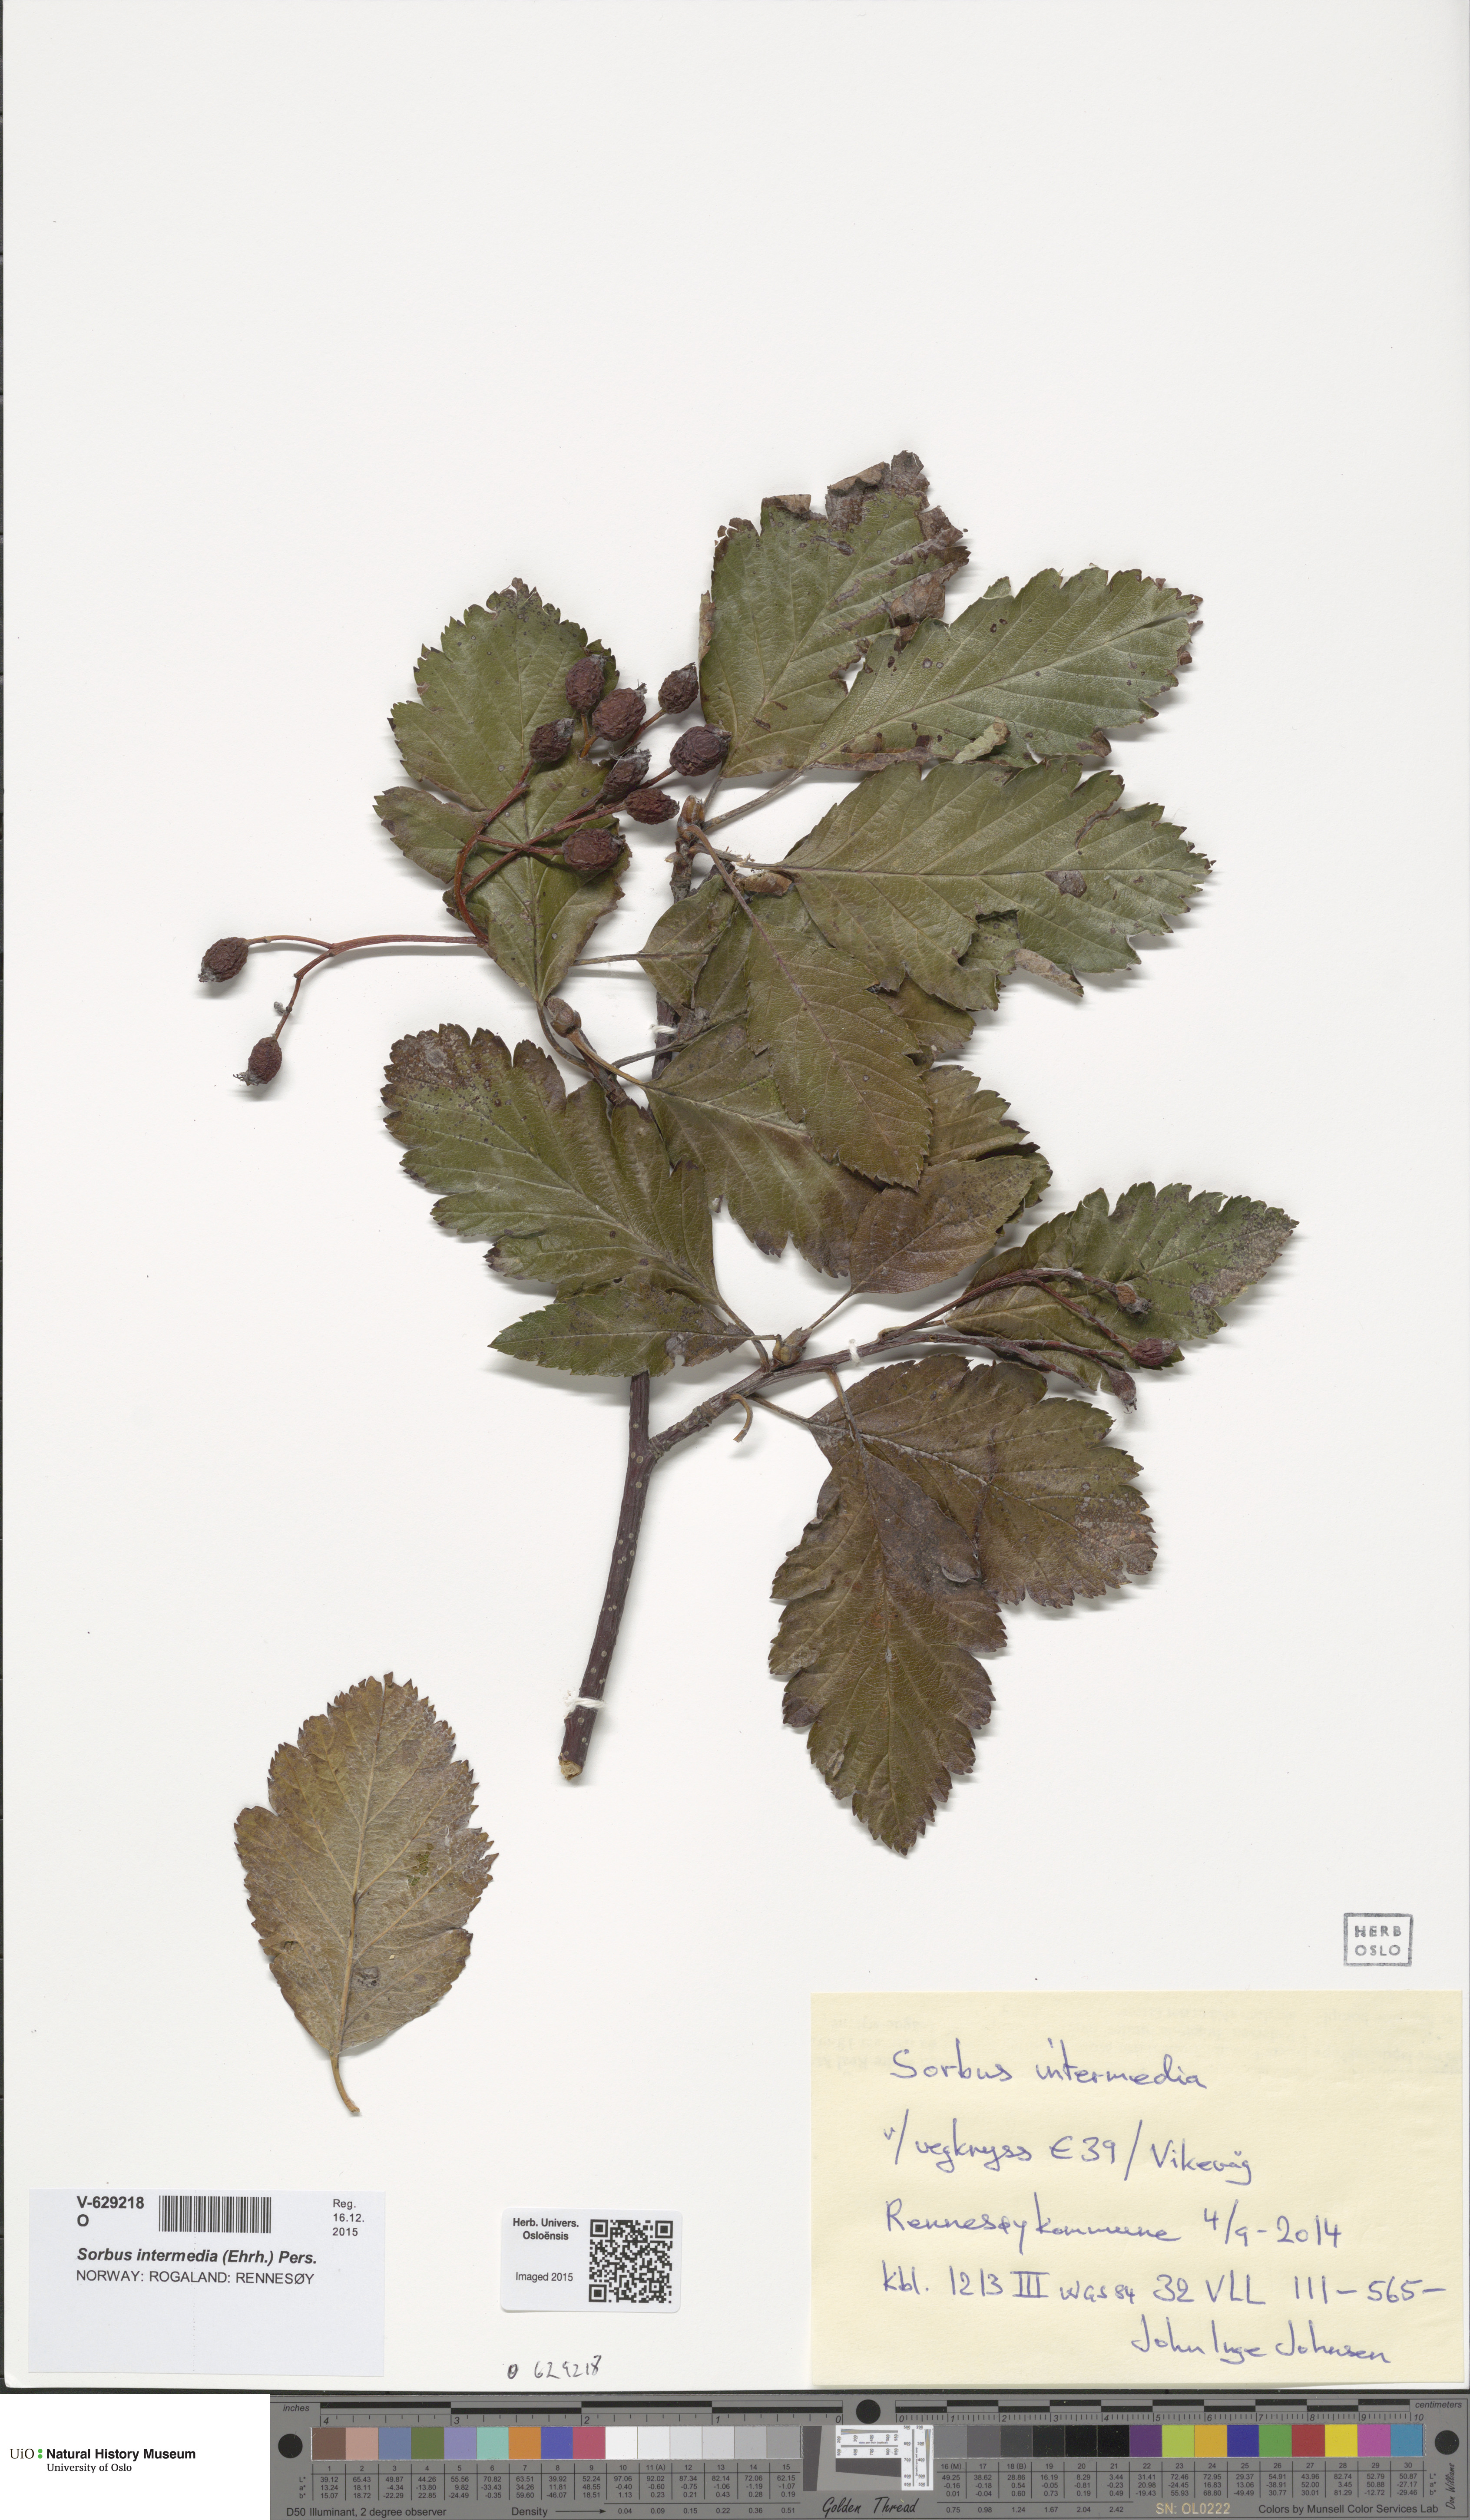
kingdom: Plantae
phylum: Tracheophyta
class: Magnoliopsida
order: Rosales
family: Rosaceae
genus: Scandosorbus
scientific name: Scandosorbus intermedia
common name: Swedish whitebeam
